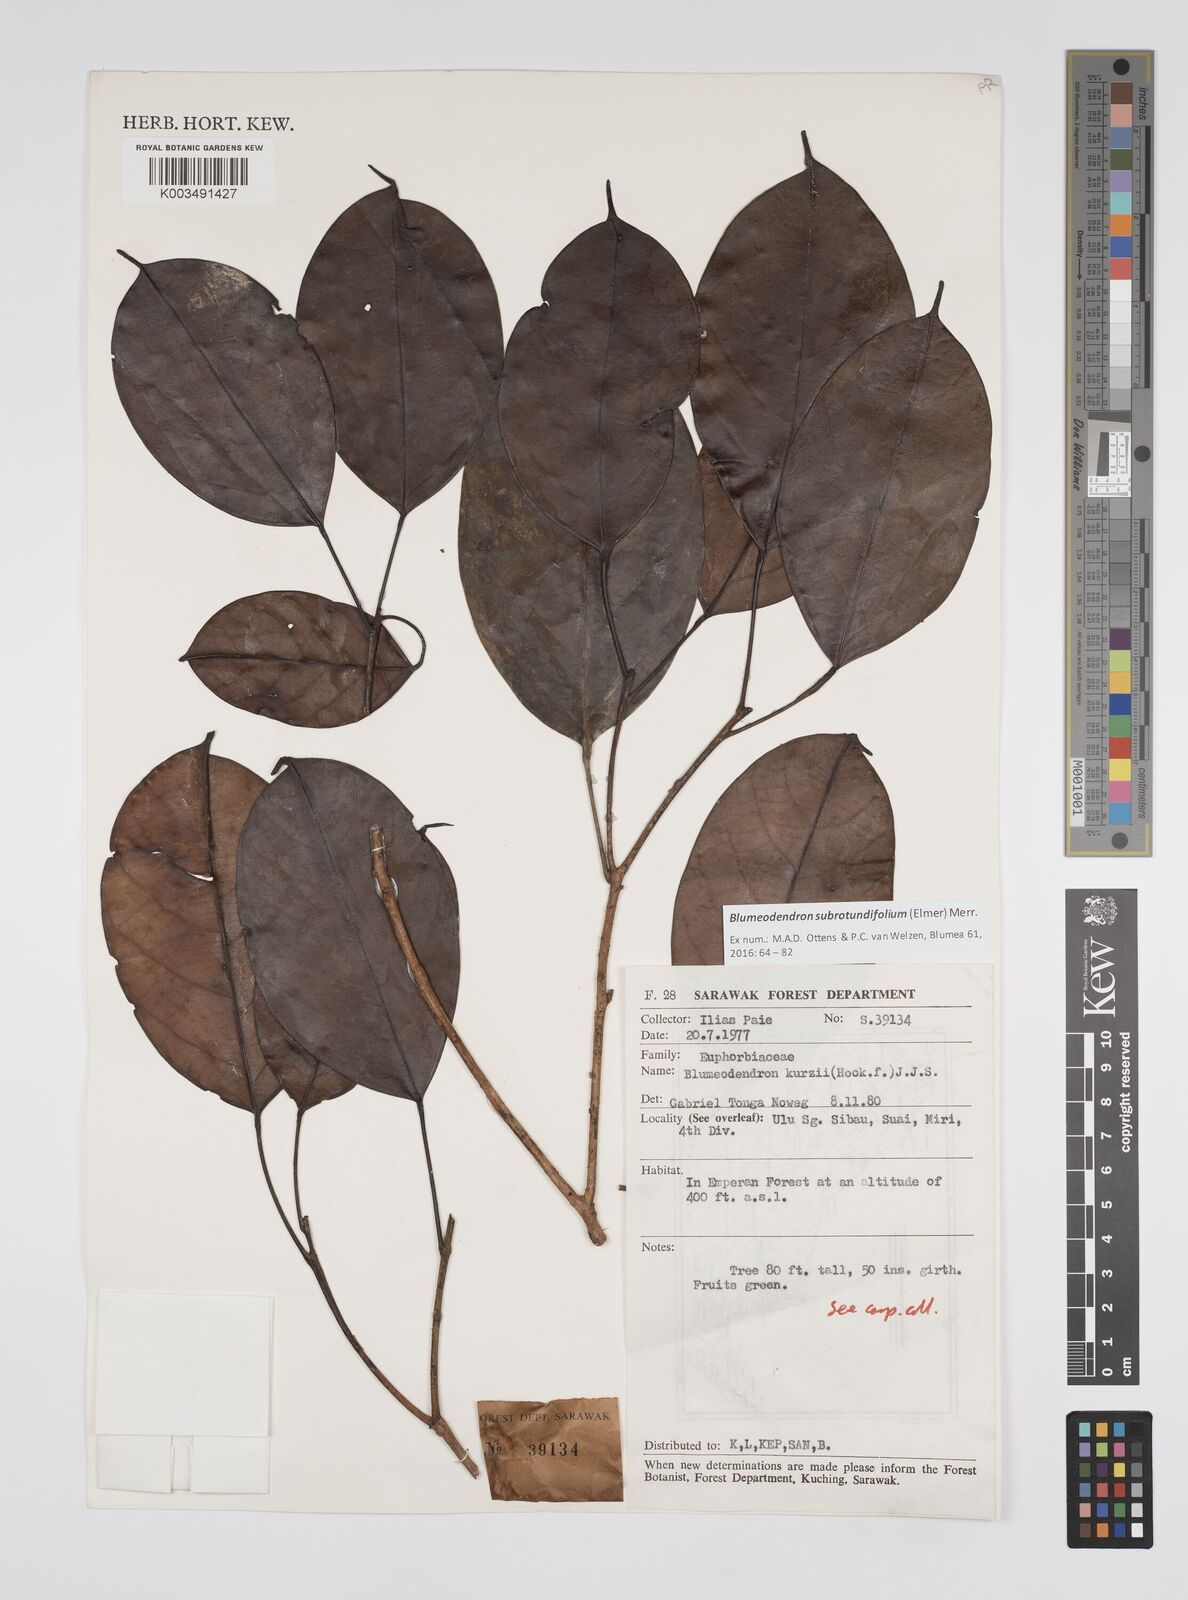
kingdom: Plantae
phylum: Tracheophyta
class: Magnoliopsida
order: Malpighiales
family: Euphorbiaceae
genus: Blumeodendron
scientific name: Blumeodendron subrotundifolium
